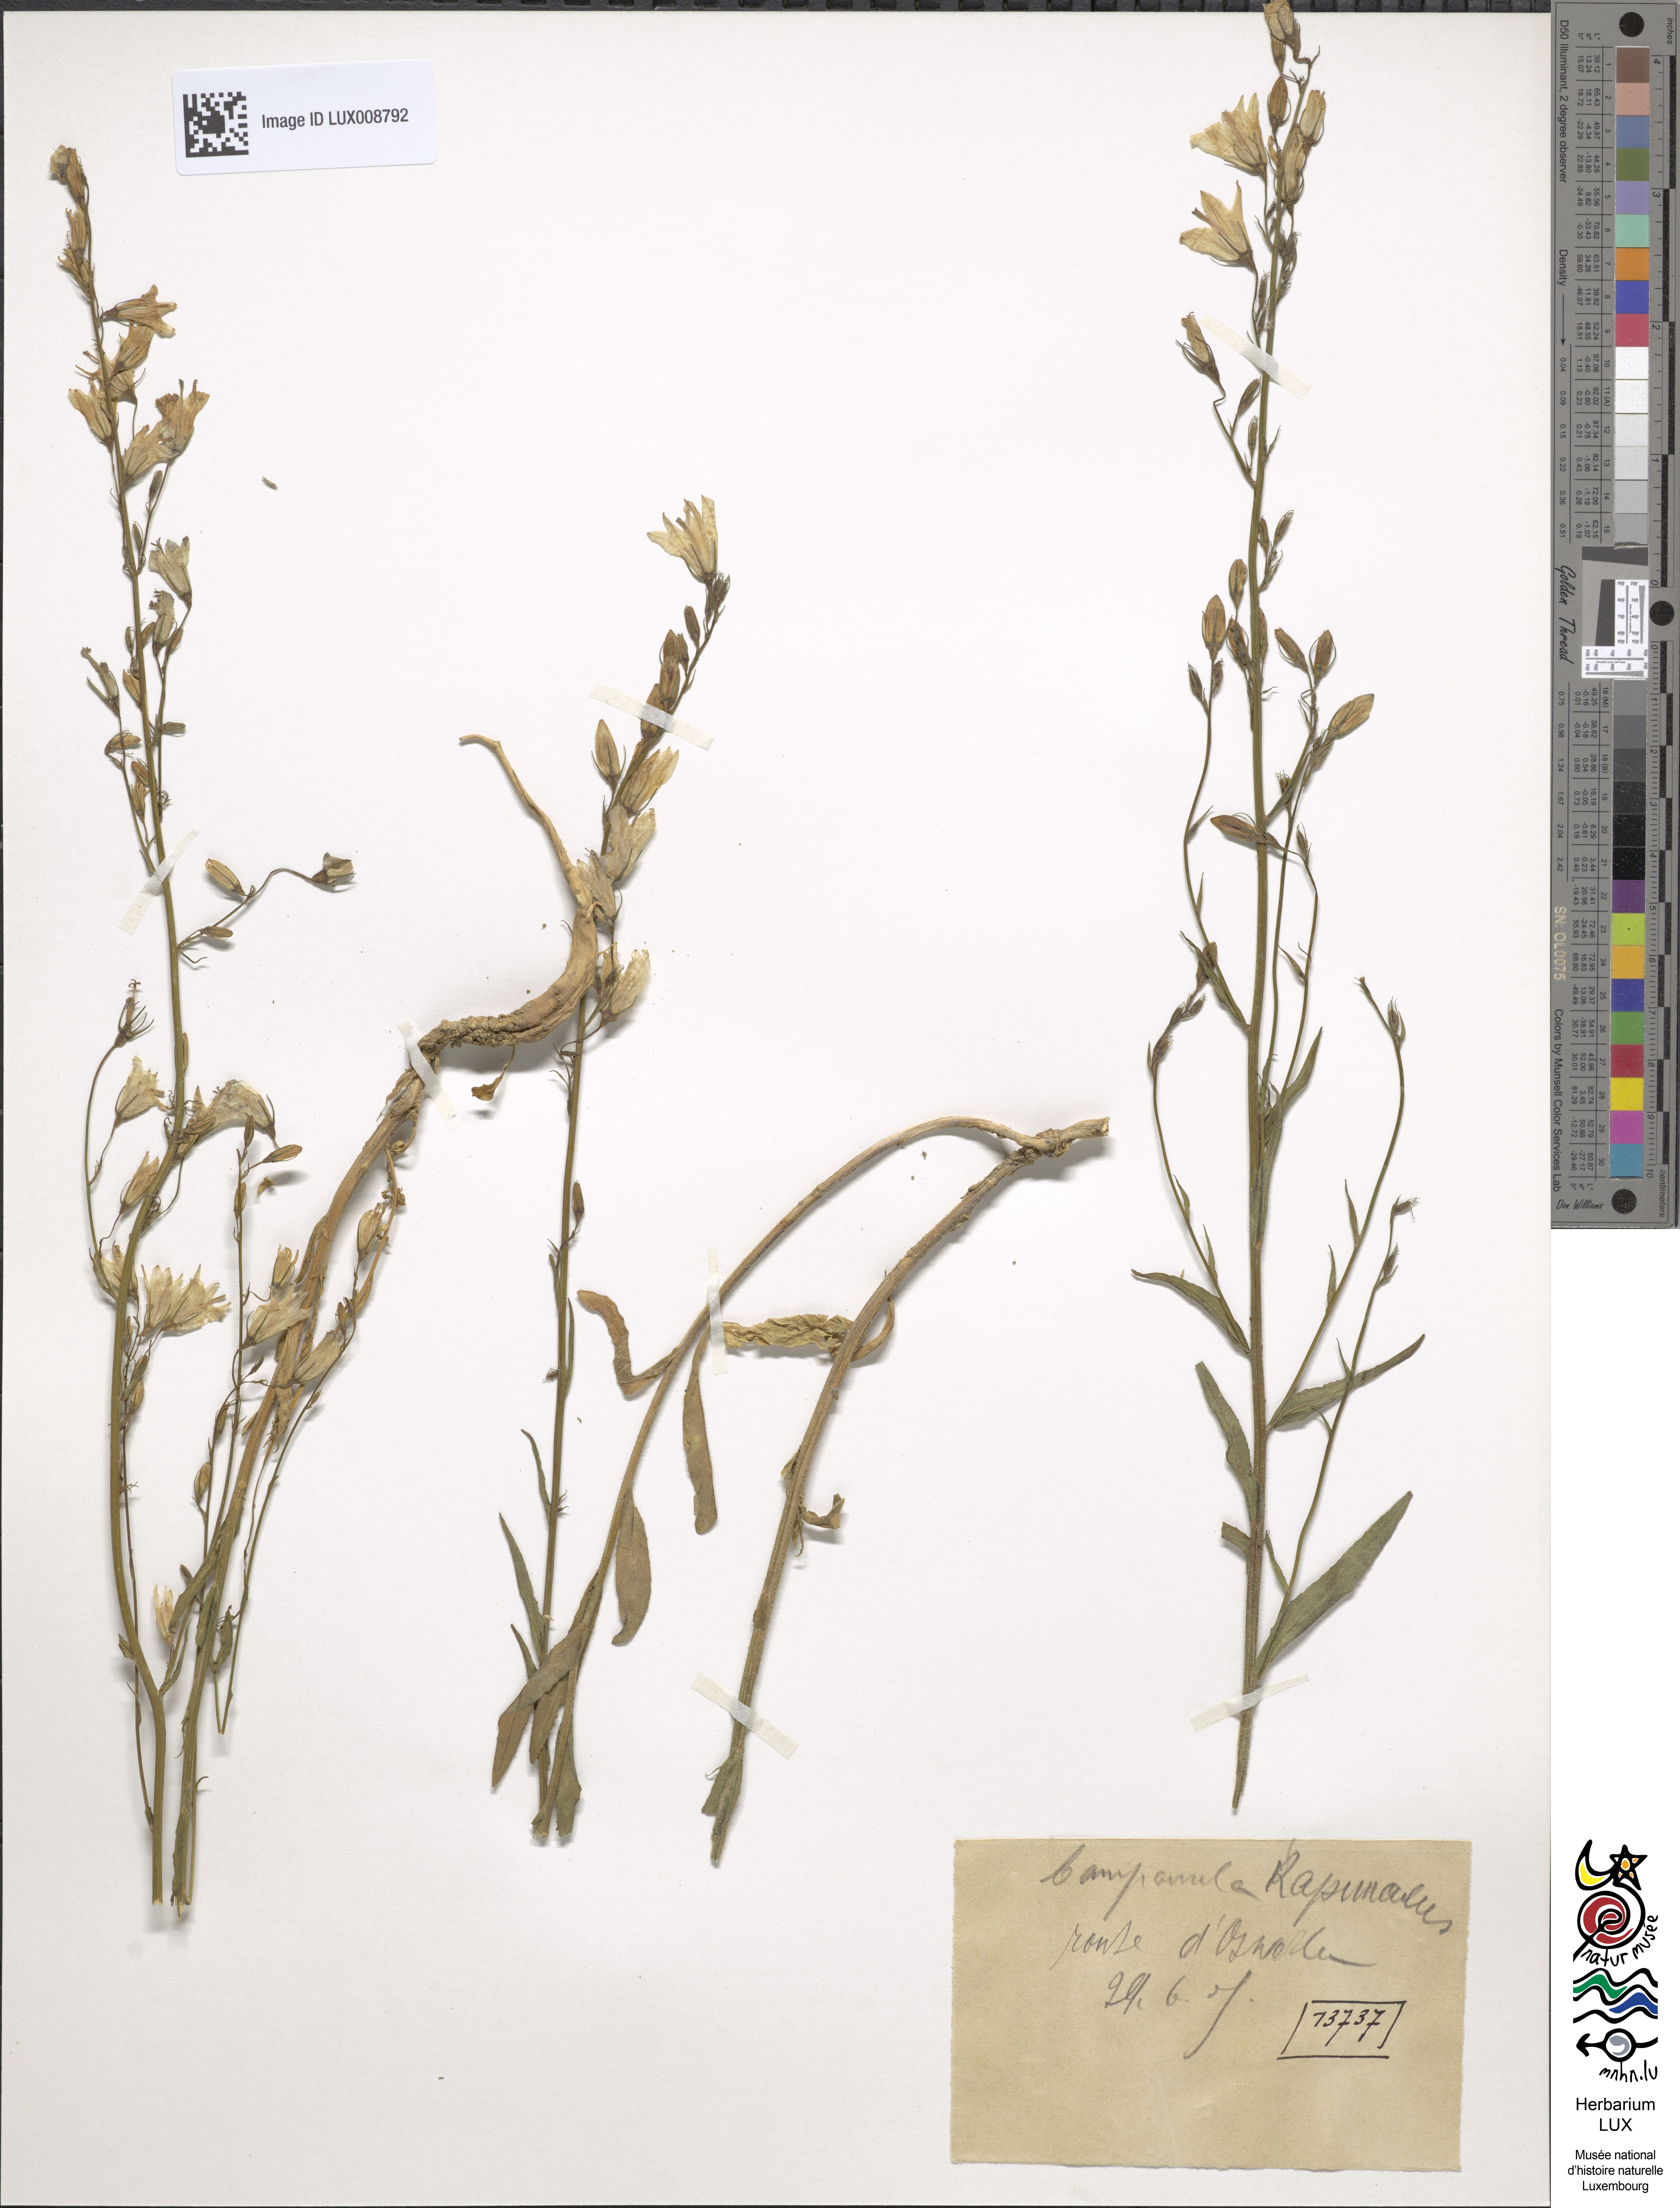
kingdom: Plantae
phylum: Tracheophyta
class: Magnoliopsida
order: Asterales
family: Campanulaceae
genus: Campanula
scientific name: Campanula rapunculus
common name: Rampion bellflower
